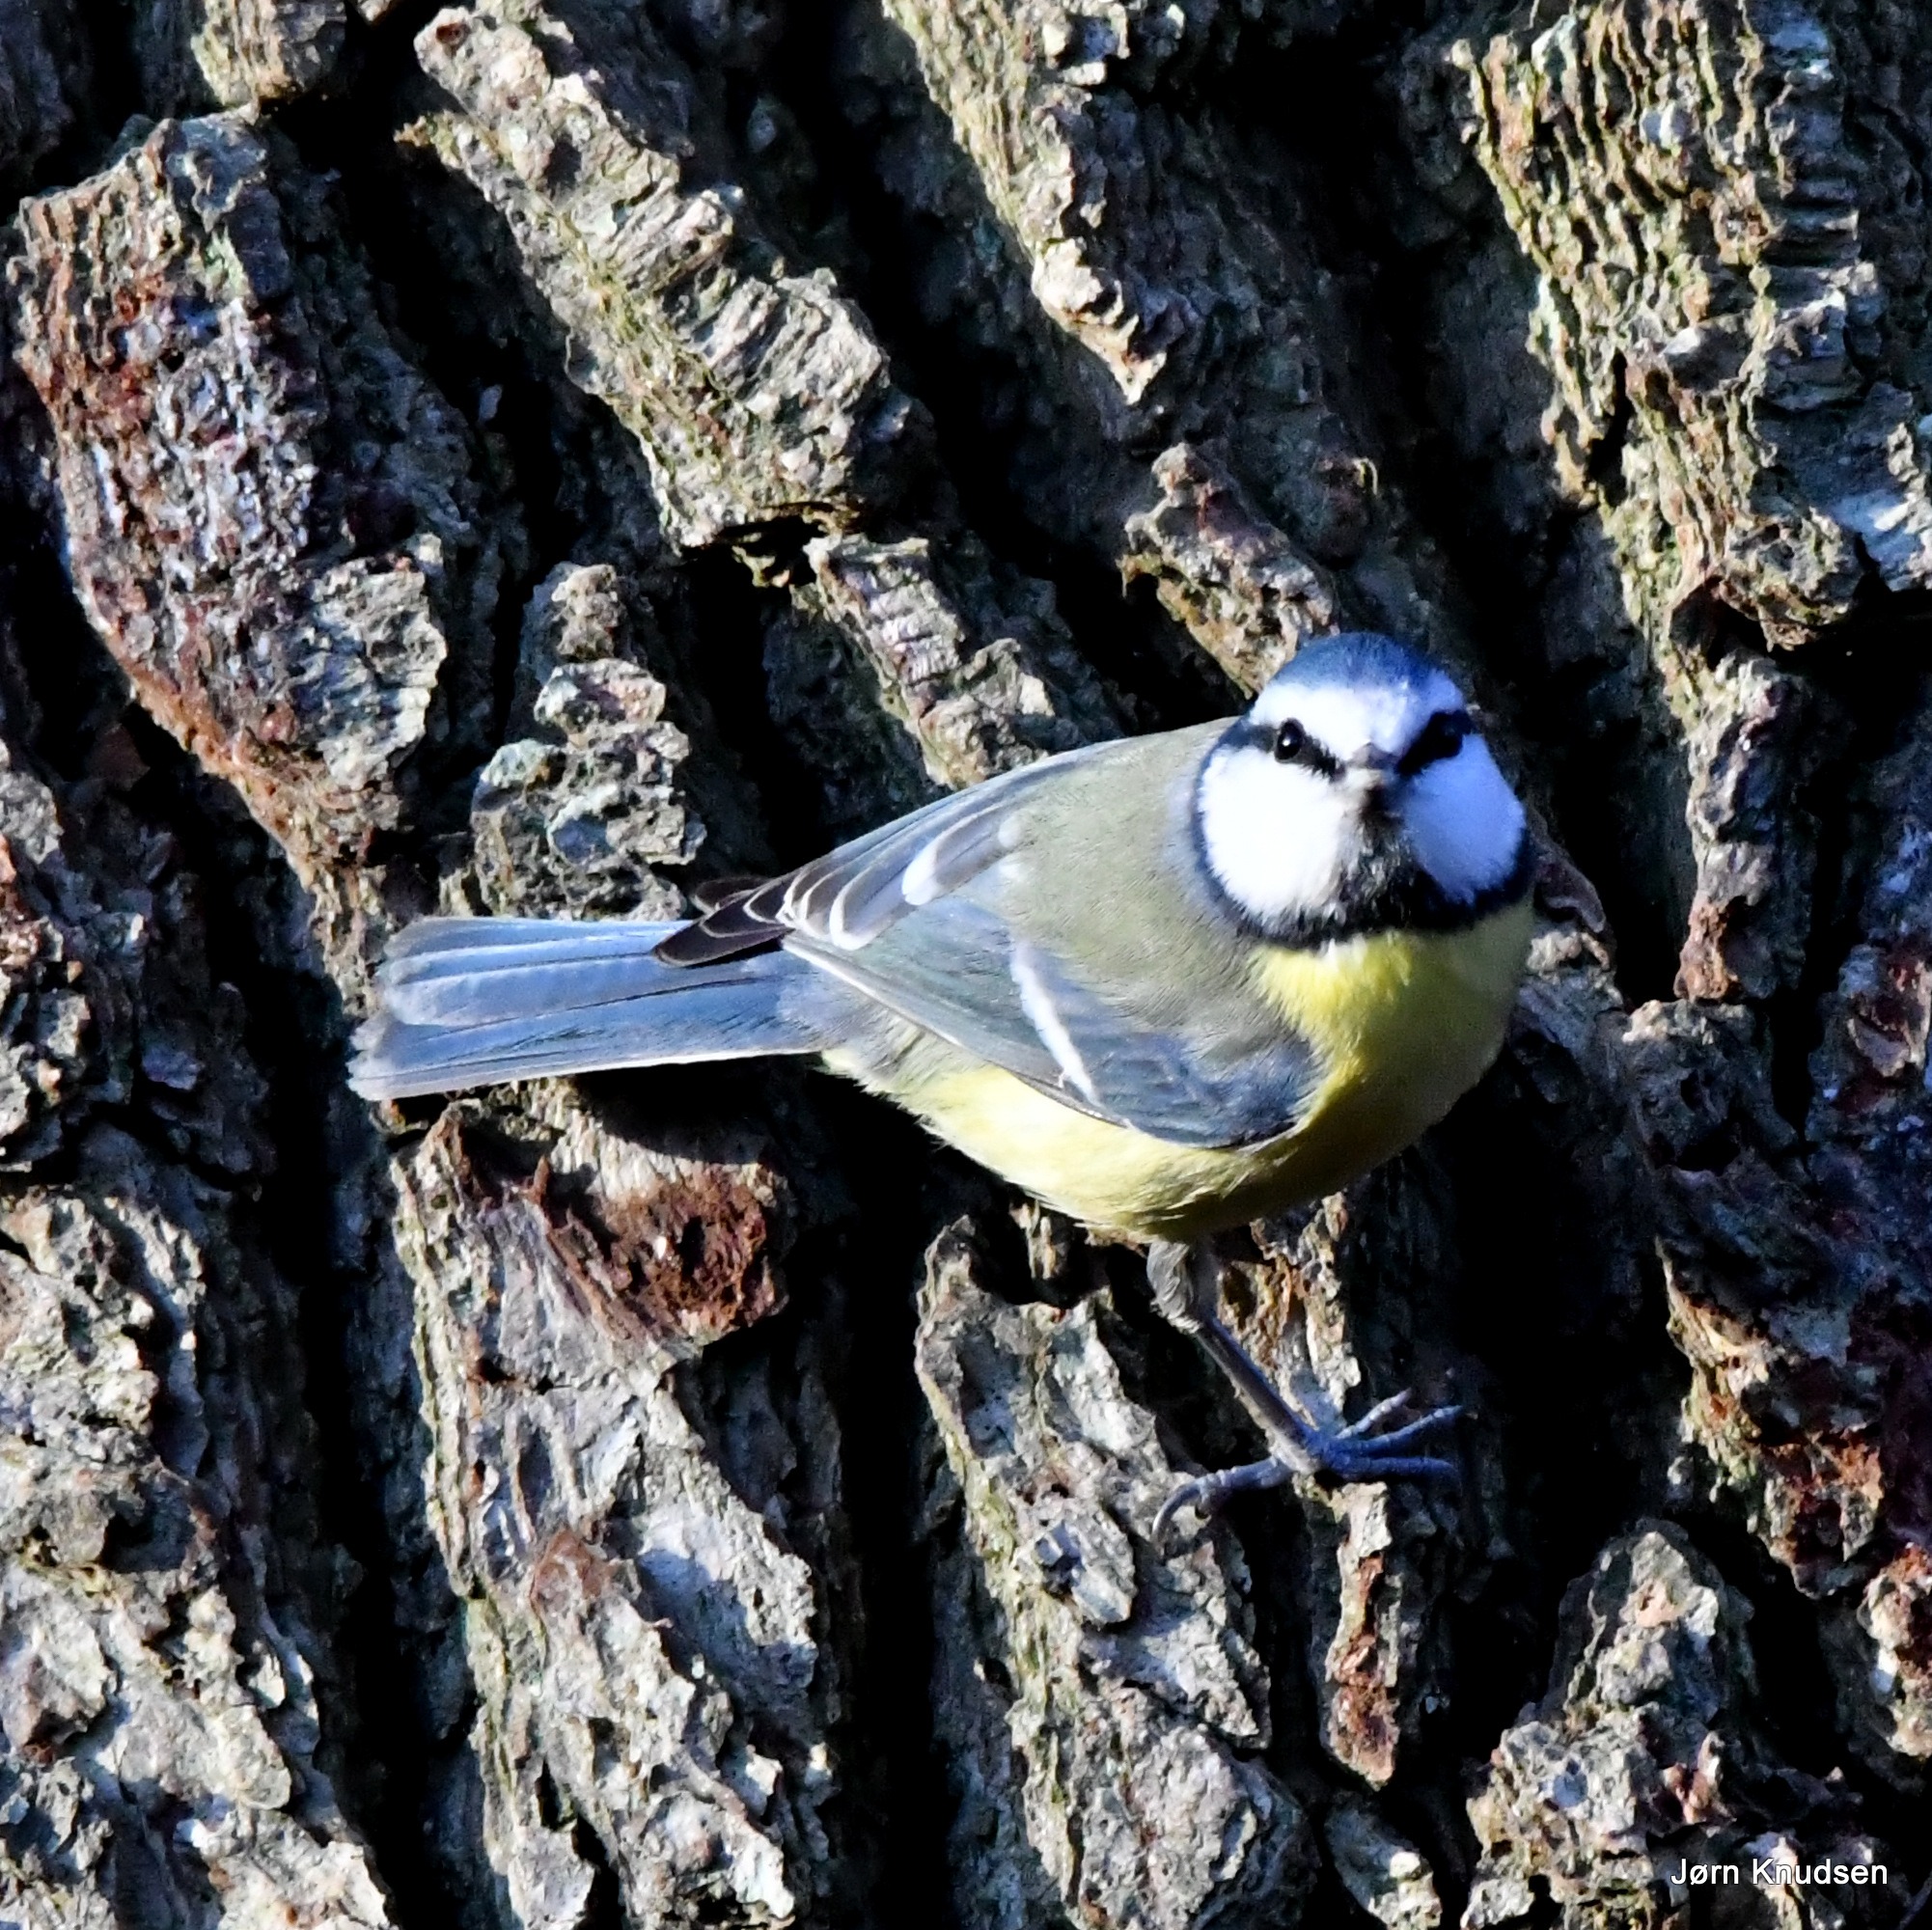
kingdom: Animalia
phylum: Chordata
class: Aves
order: Passeriformes
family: Paridae
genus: Cyanistes
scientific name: Cyanistes caeruleus
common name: Blåmejse
